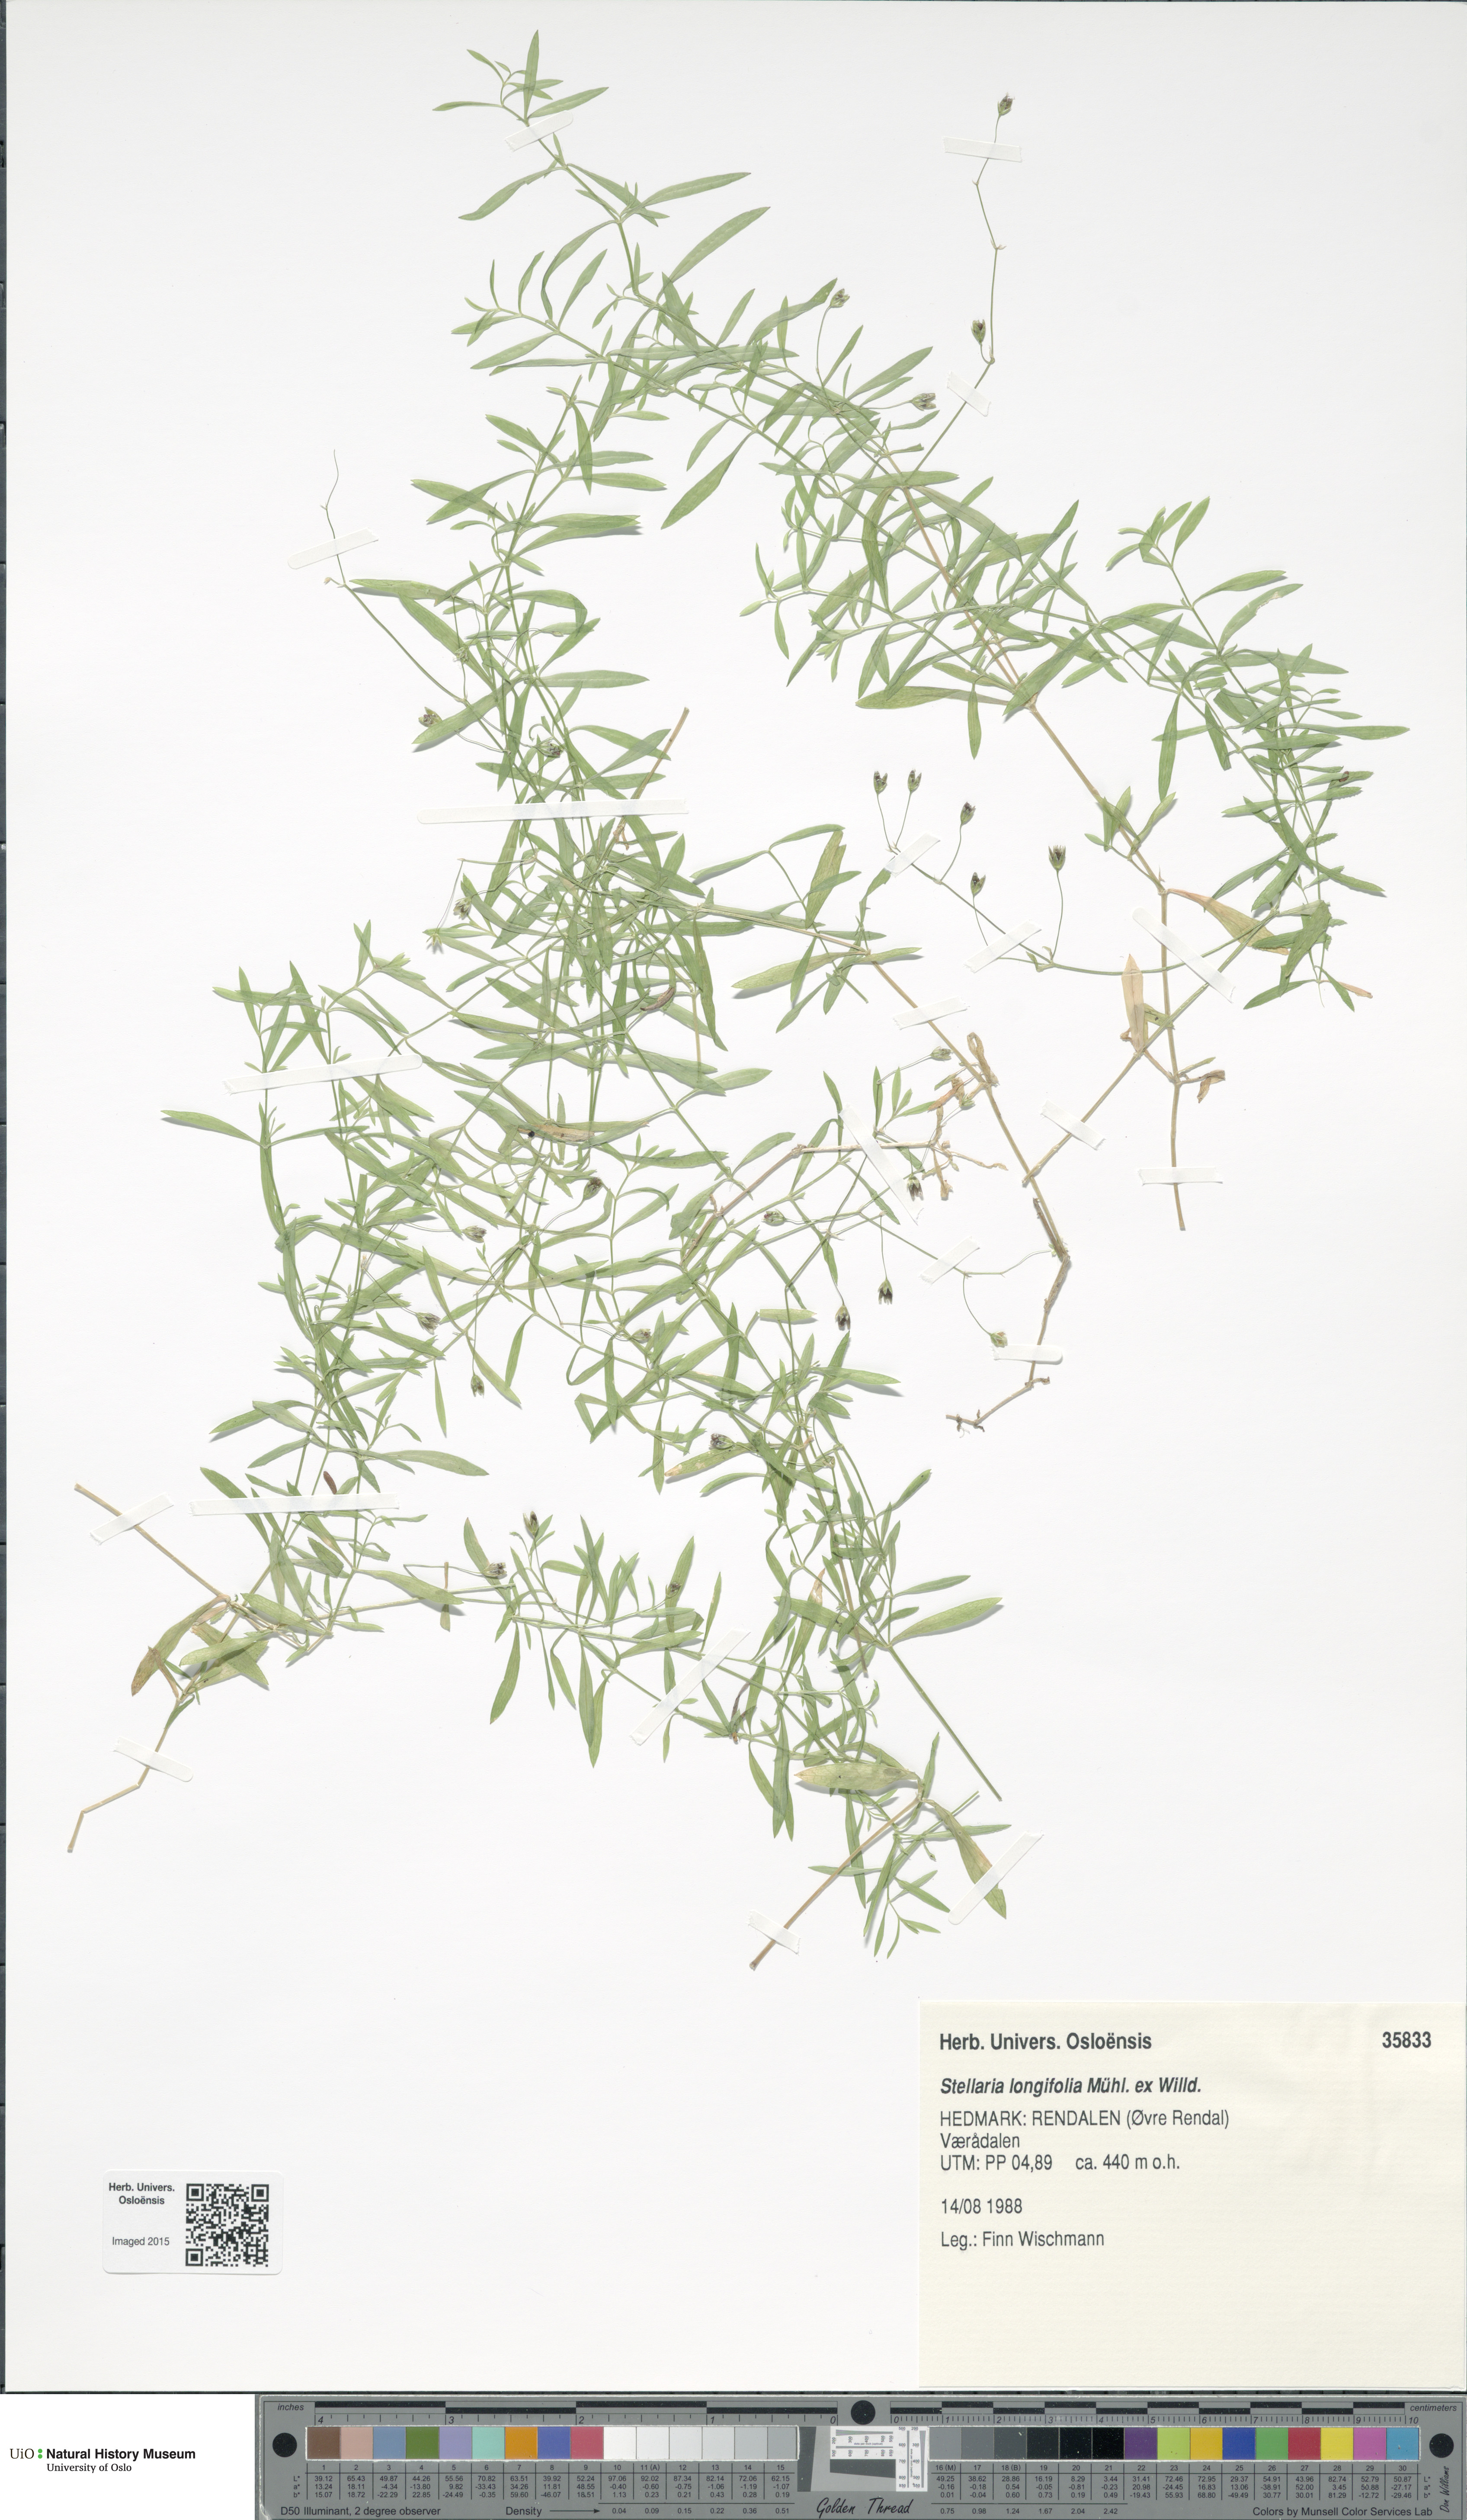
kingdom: Plantae
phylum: Tracheophyta
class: Magnoliopsida
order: Caryophyllales
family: Caryophyllaceae
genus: Stellaria
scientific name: Stellaria longifolia
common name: Long-leaved chickweed
